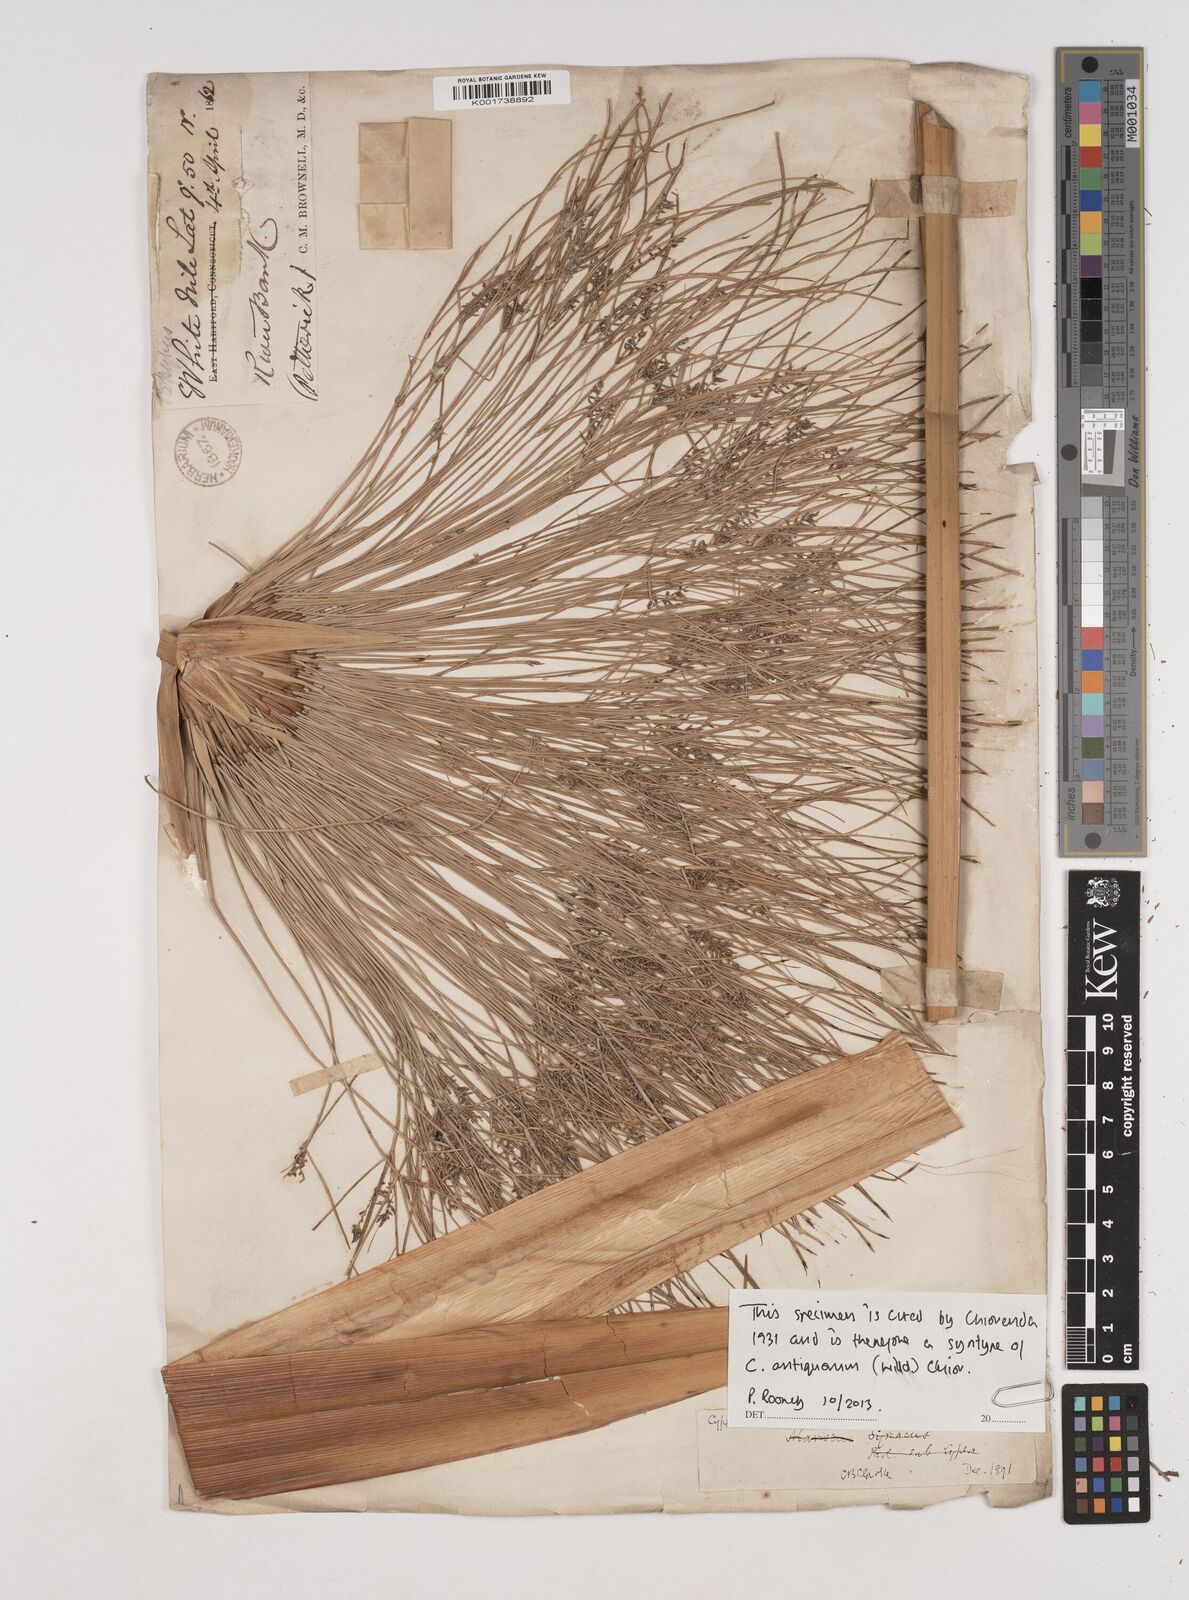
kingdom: Plantae
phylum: Tracheophyta
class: Liliopsida
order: Poales
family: Cyperaceae
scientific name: Cyperaceae
